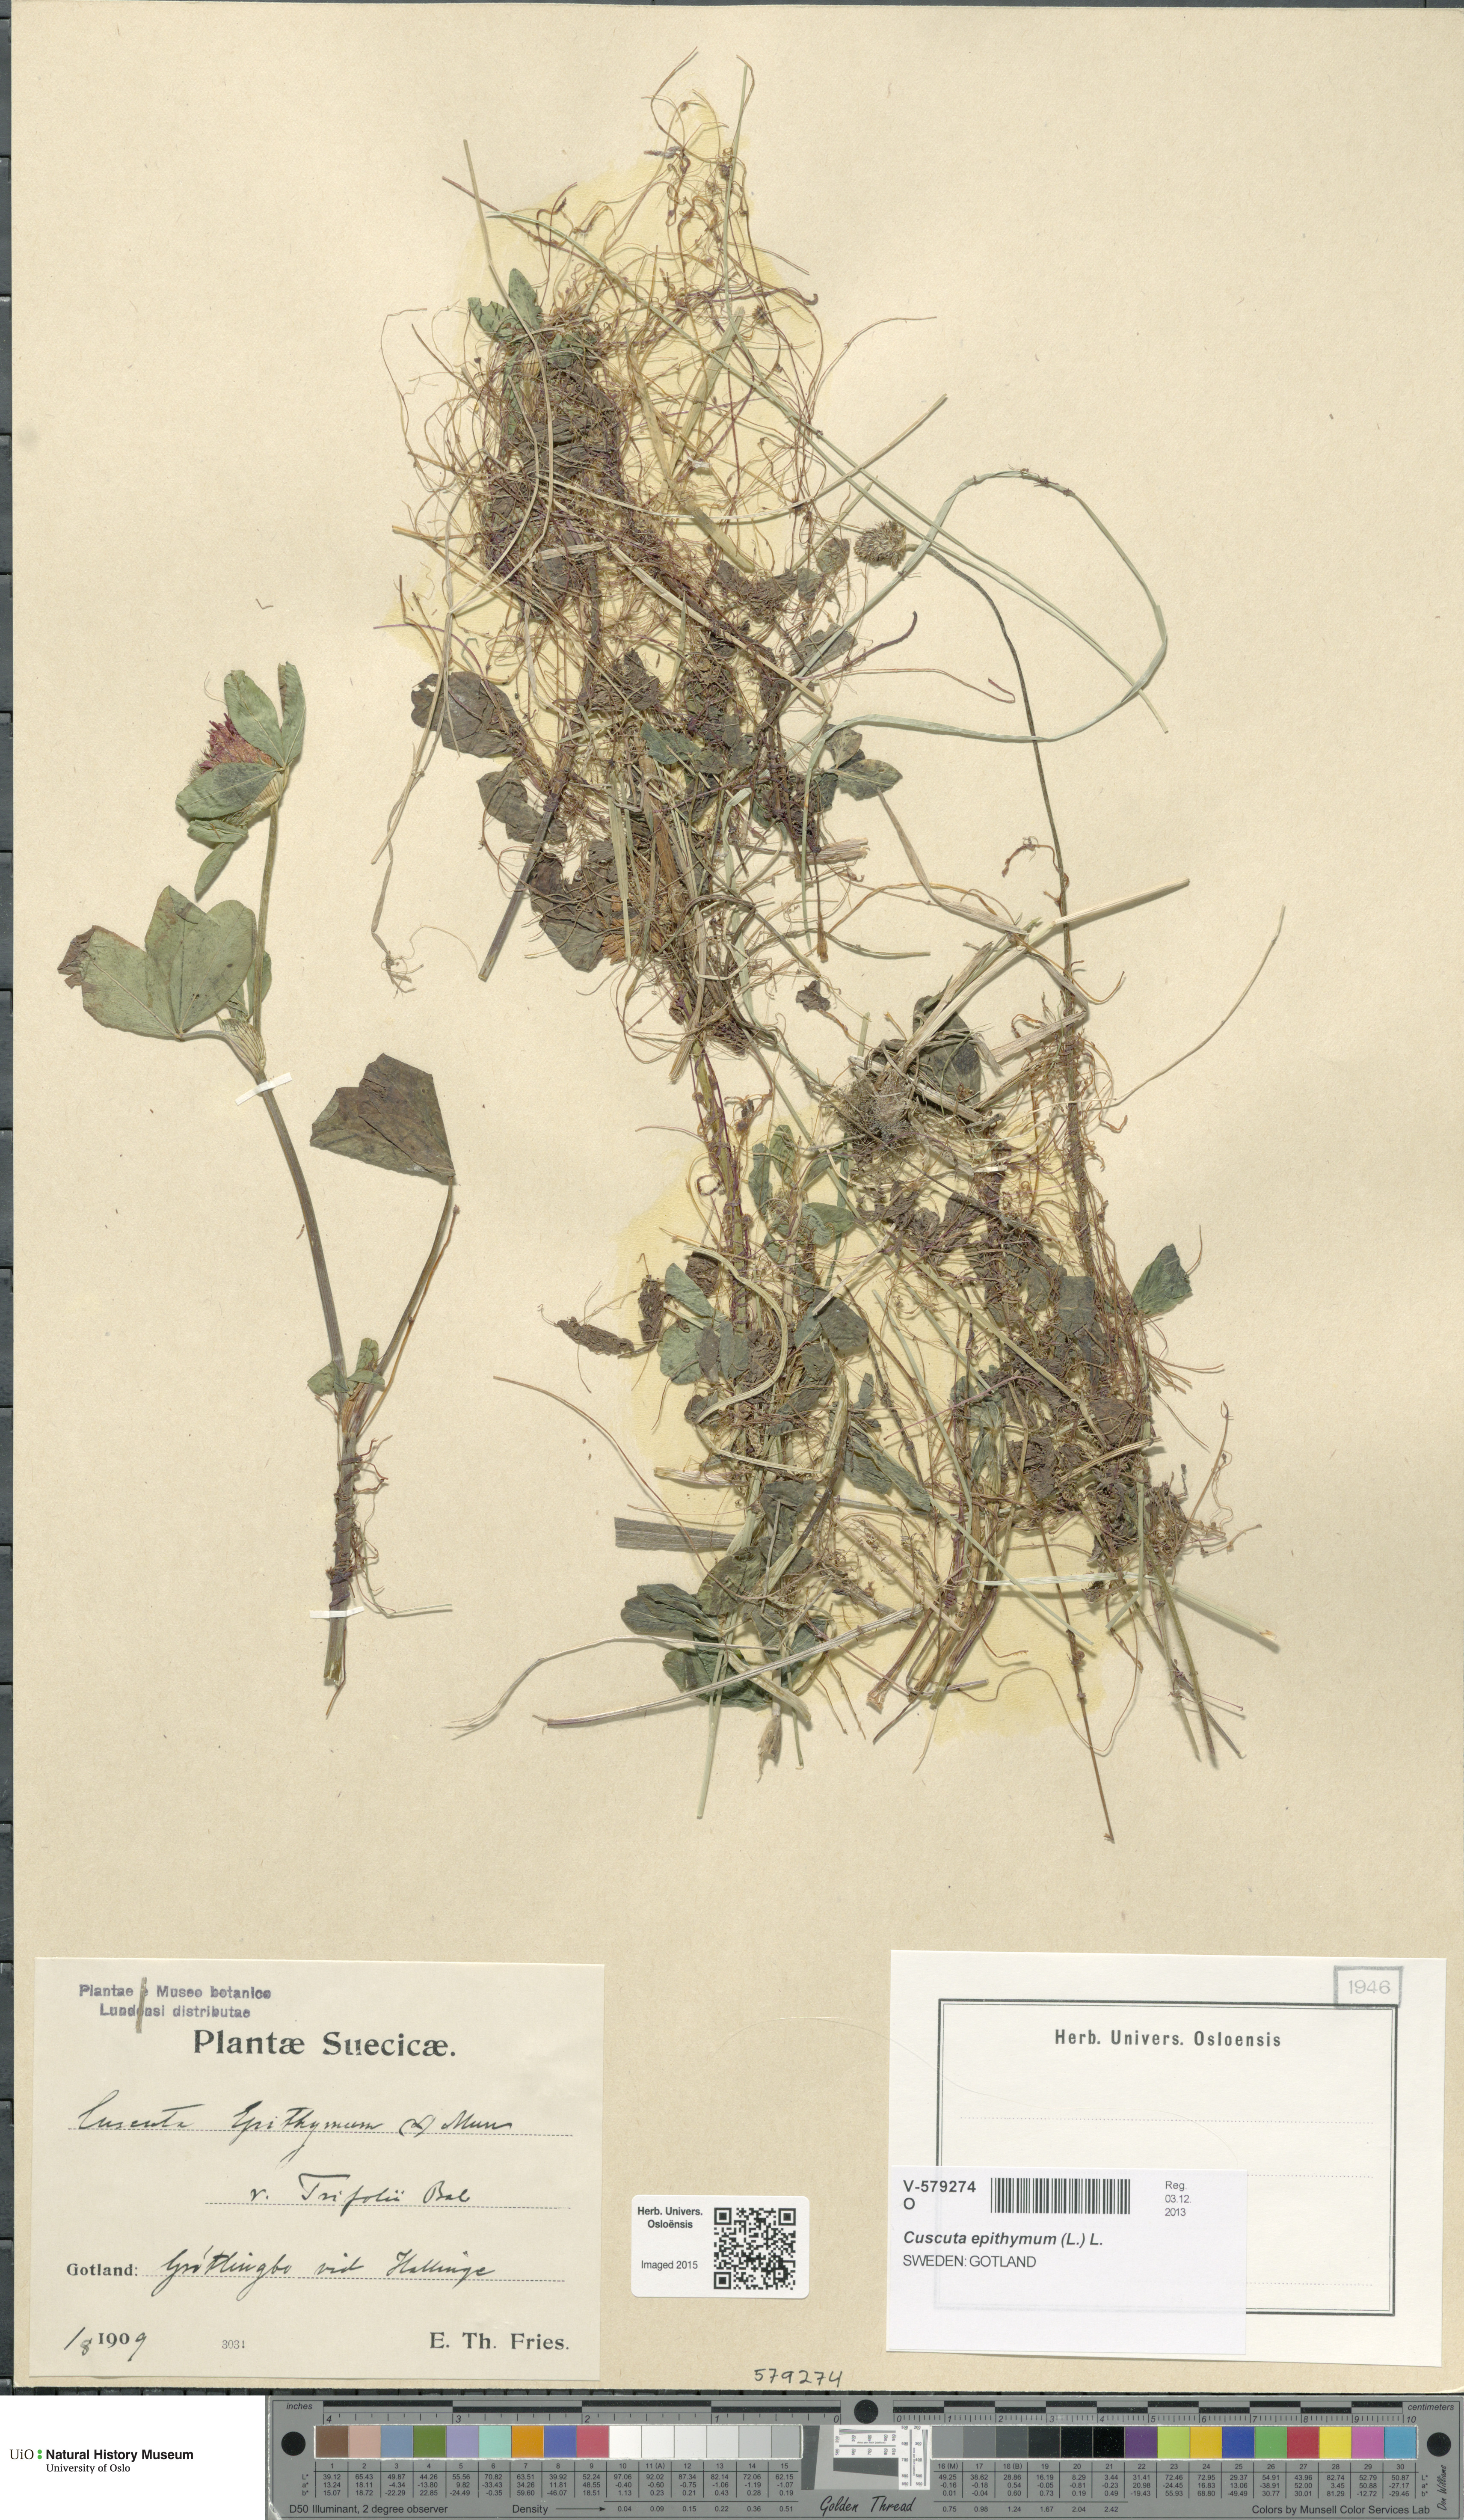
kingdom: Plantae
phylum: Tracheophyta
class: Magnoliopsida
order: Solanales
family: Convolvulaceae
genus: Cuscuta
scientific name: Cuscuta epithymum
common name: Clover dodder
